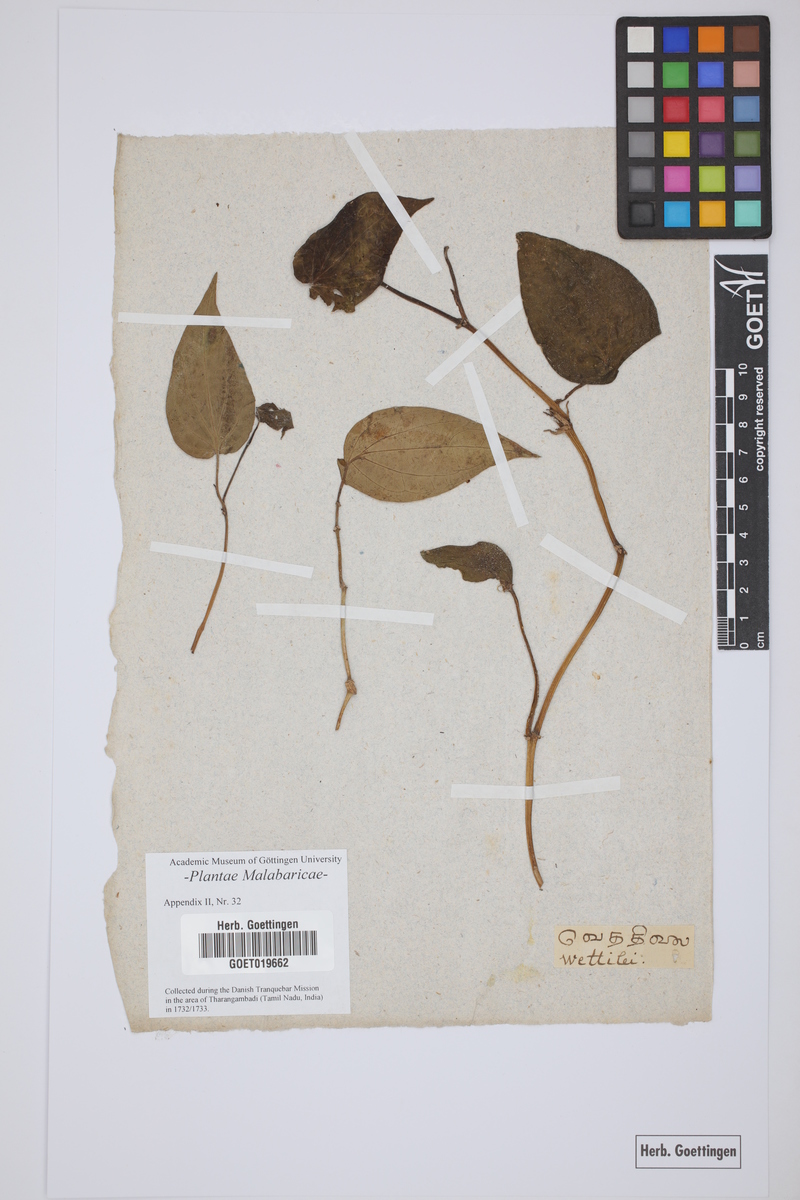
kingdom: Plantae
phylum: Tracheophyta
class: Magnoliopsida
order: Piperales
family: Piperaceae
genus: Piper
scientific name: Piper betle
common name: Betel pepper
